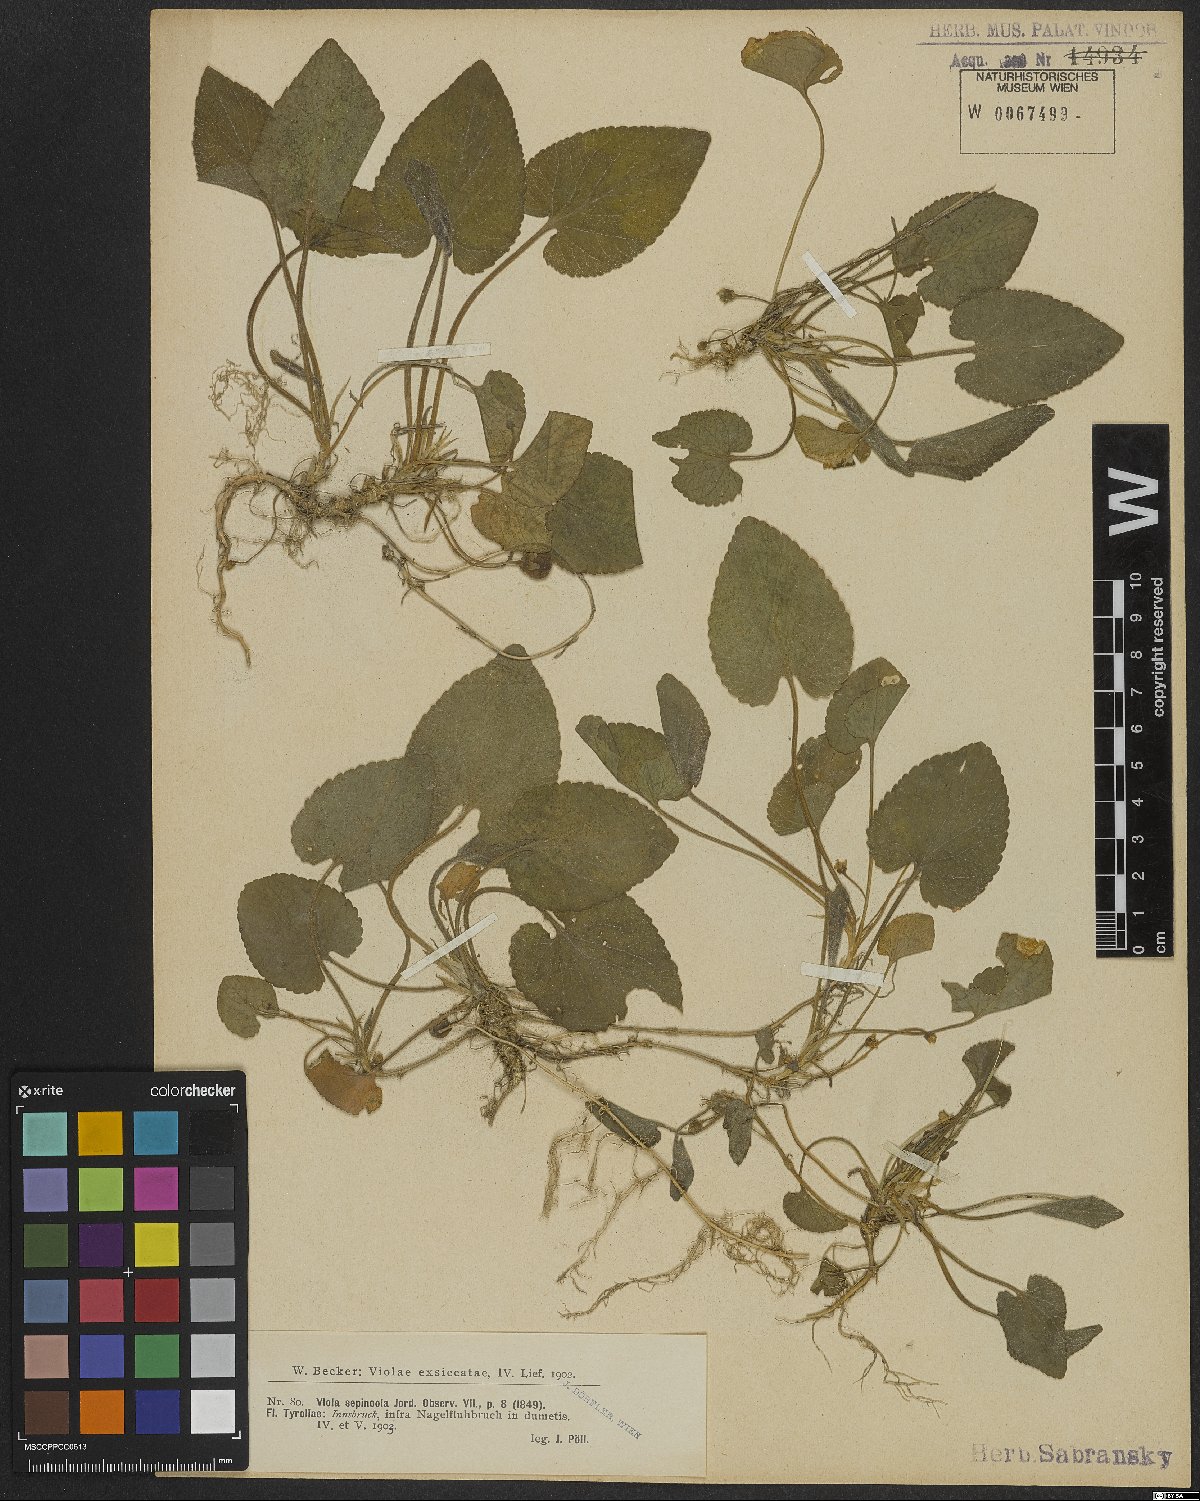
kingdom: Plantae
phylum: Tracheophyta
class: Magnoliopsida
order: Malpighiales
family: Violaceae
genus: Viola
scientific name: Viola suavis
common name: Russian violet
